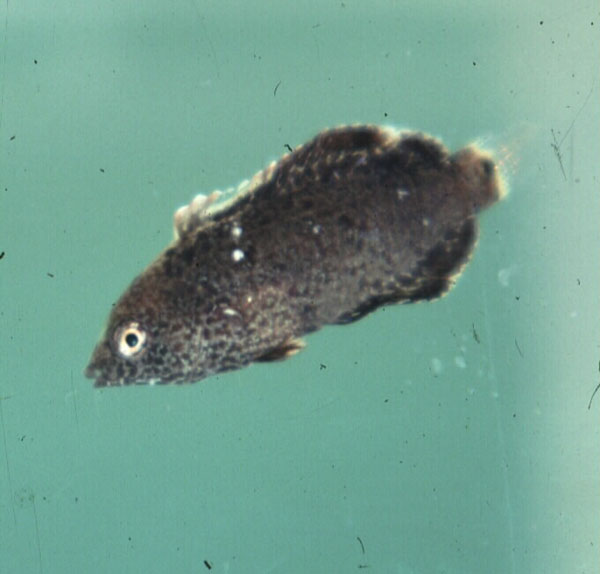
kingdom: Animalia
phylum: Chordata
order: Perciformes
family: Labridae
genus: Anampses
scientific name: Anampses meleagrides
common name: Yellowtail wrasse
